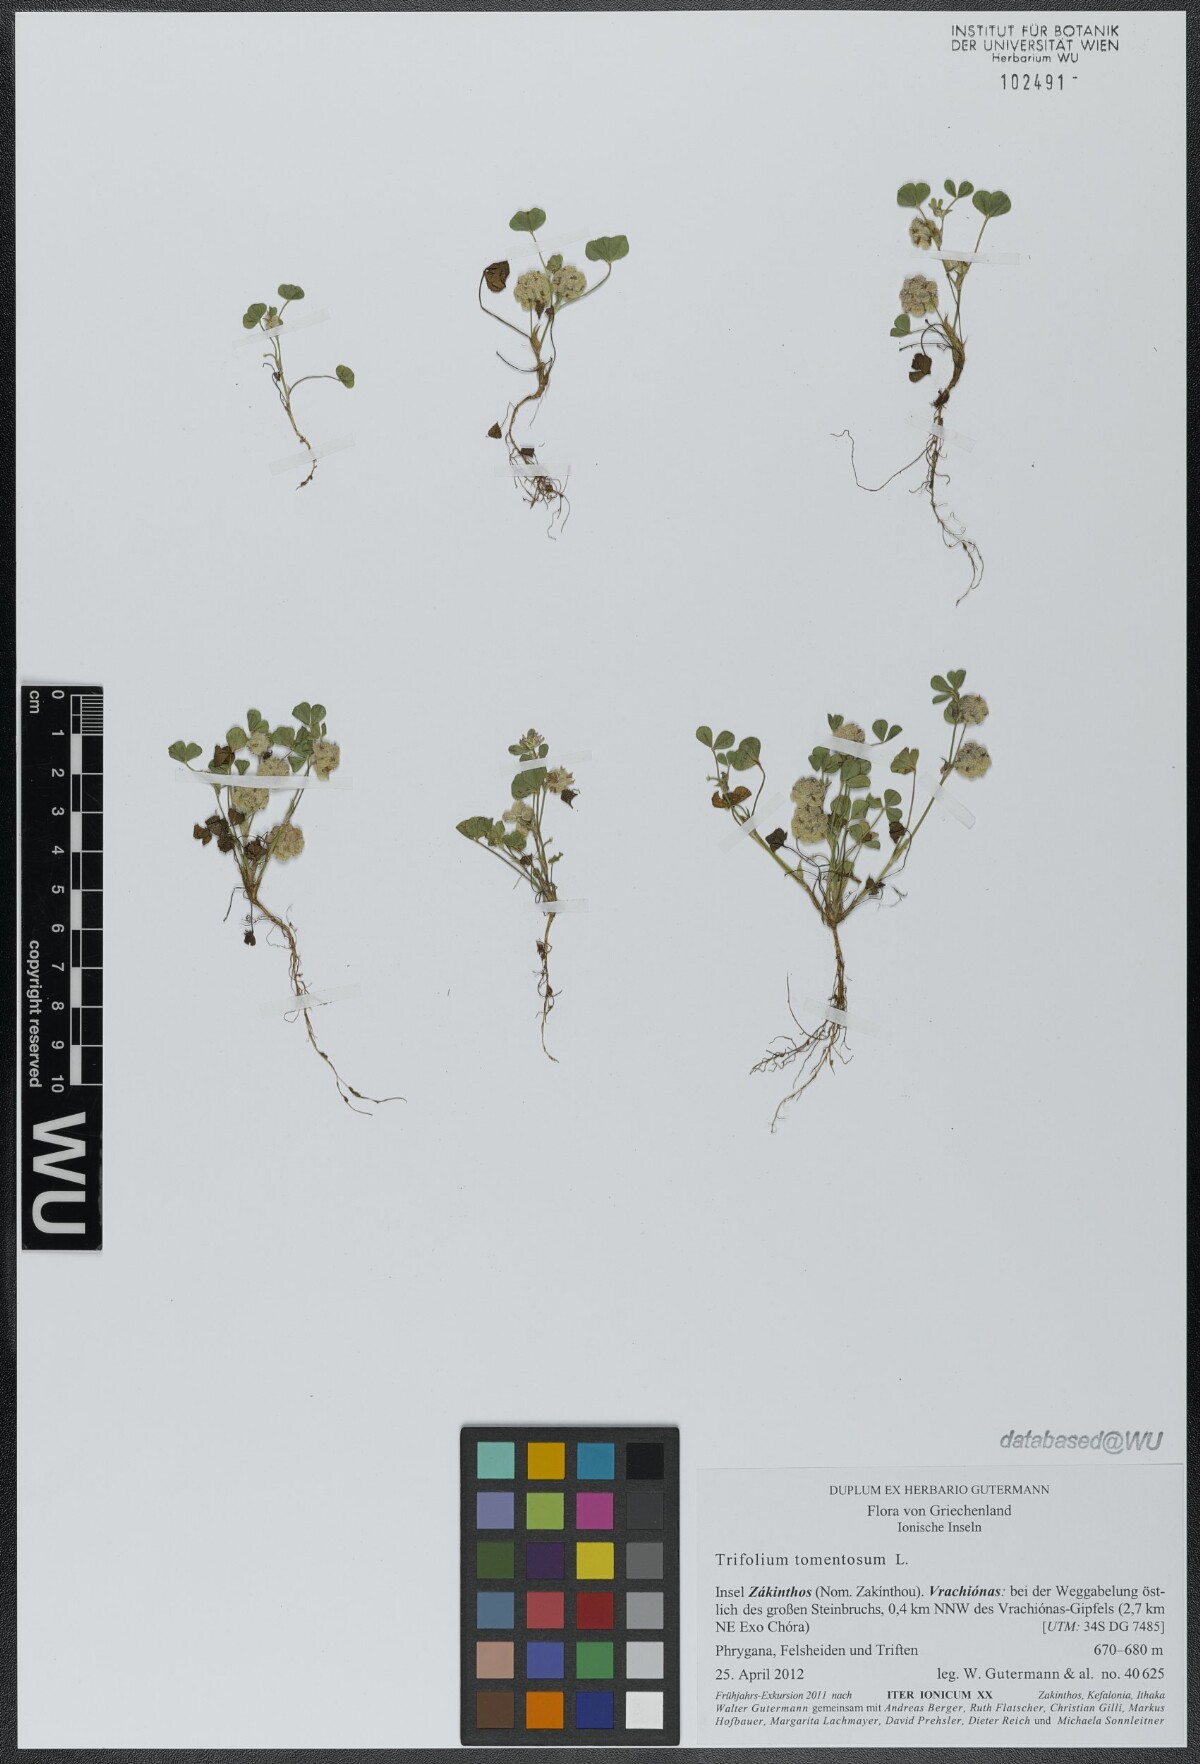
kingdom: Plantae
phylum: Tracheophyta
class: Magnoliopsida
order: Fabales
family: Fabaceae
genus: Trifolium
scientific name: Trifolium tomentosum
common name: Woolly clover
